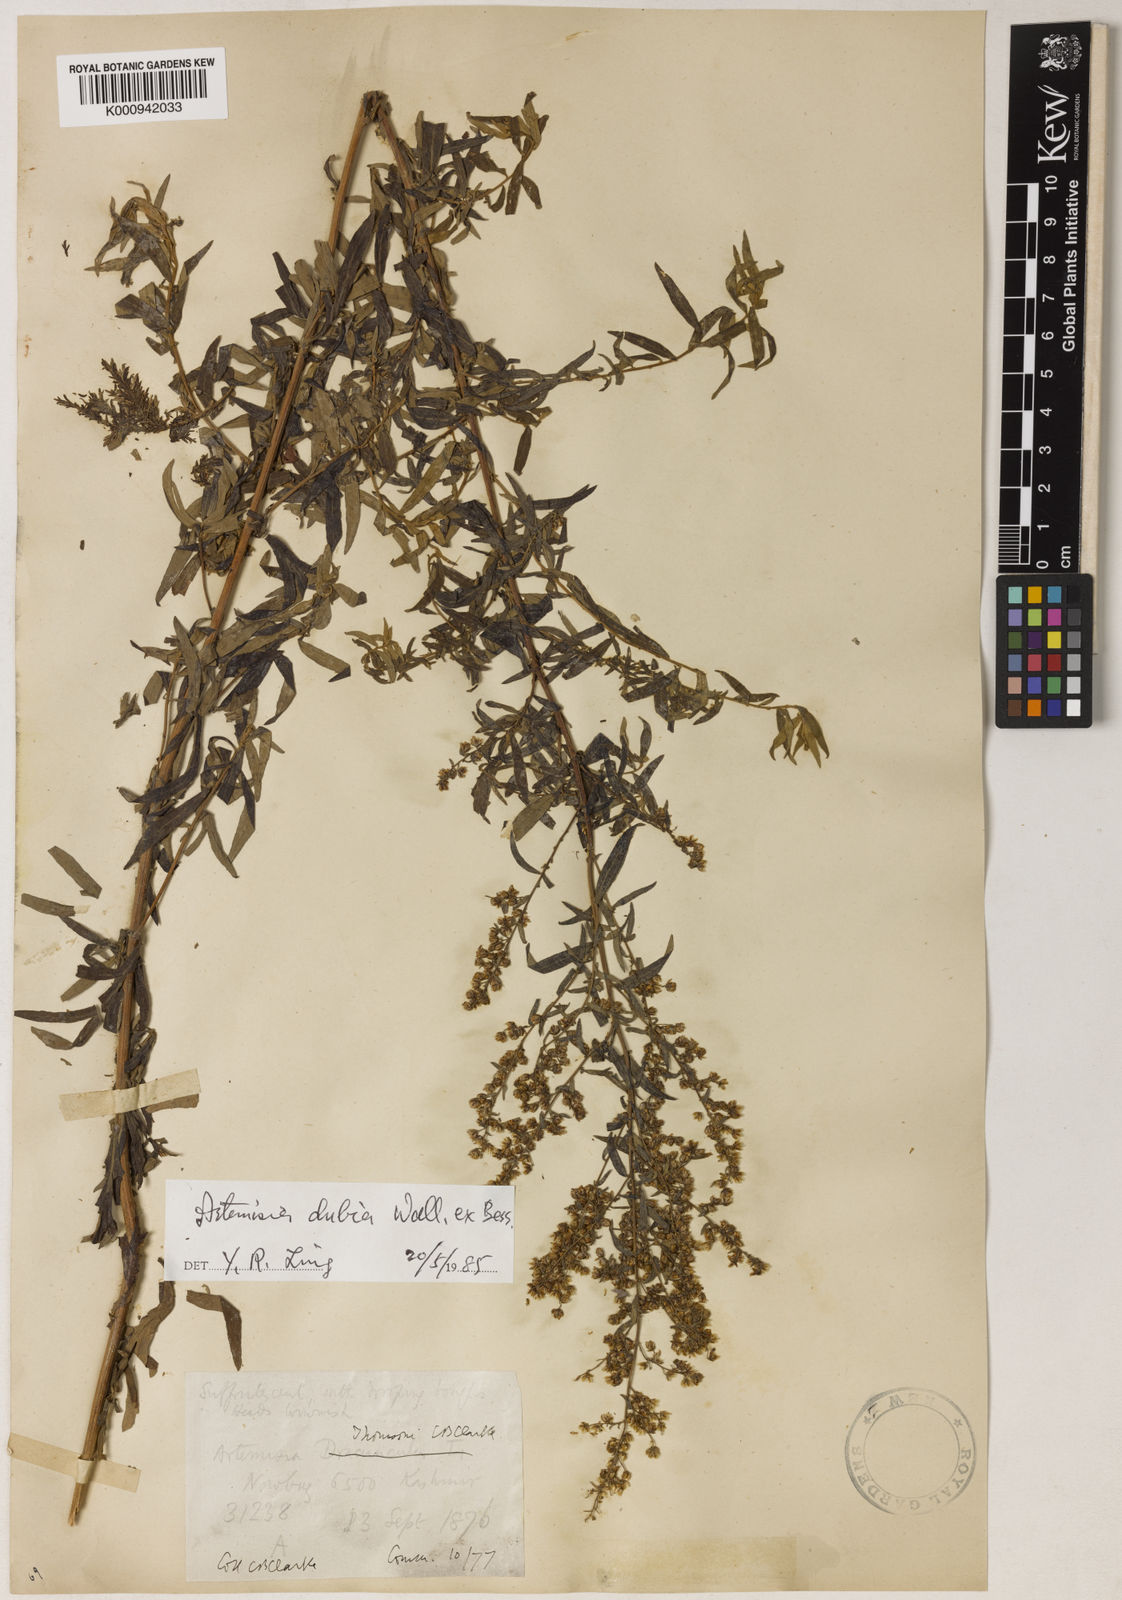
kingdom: Plantae
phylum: Tracheophyta
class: Magnoliopsida
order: Asterales
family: Asteraceae
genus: Artemisia
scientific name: Artemisia dubia
